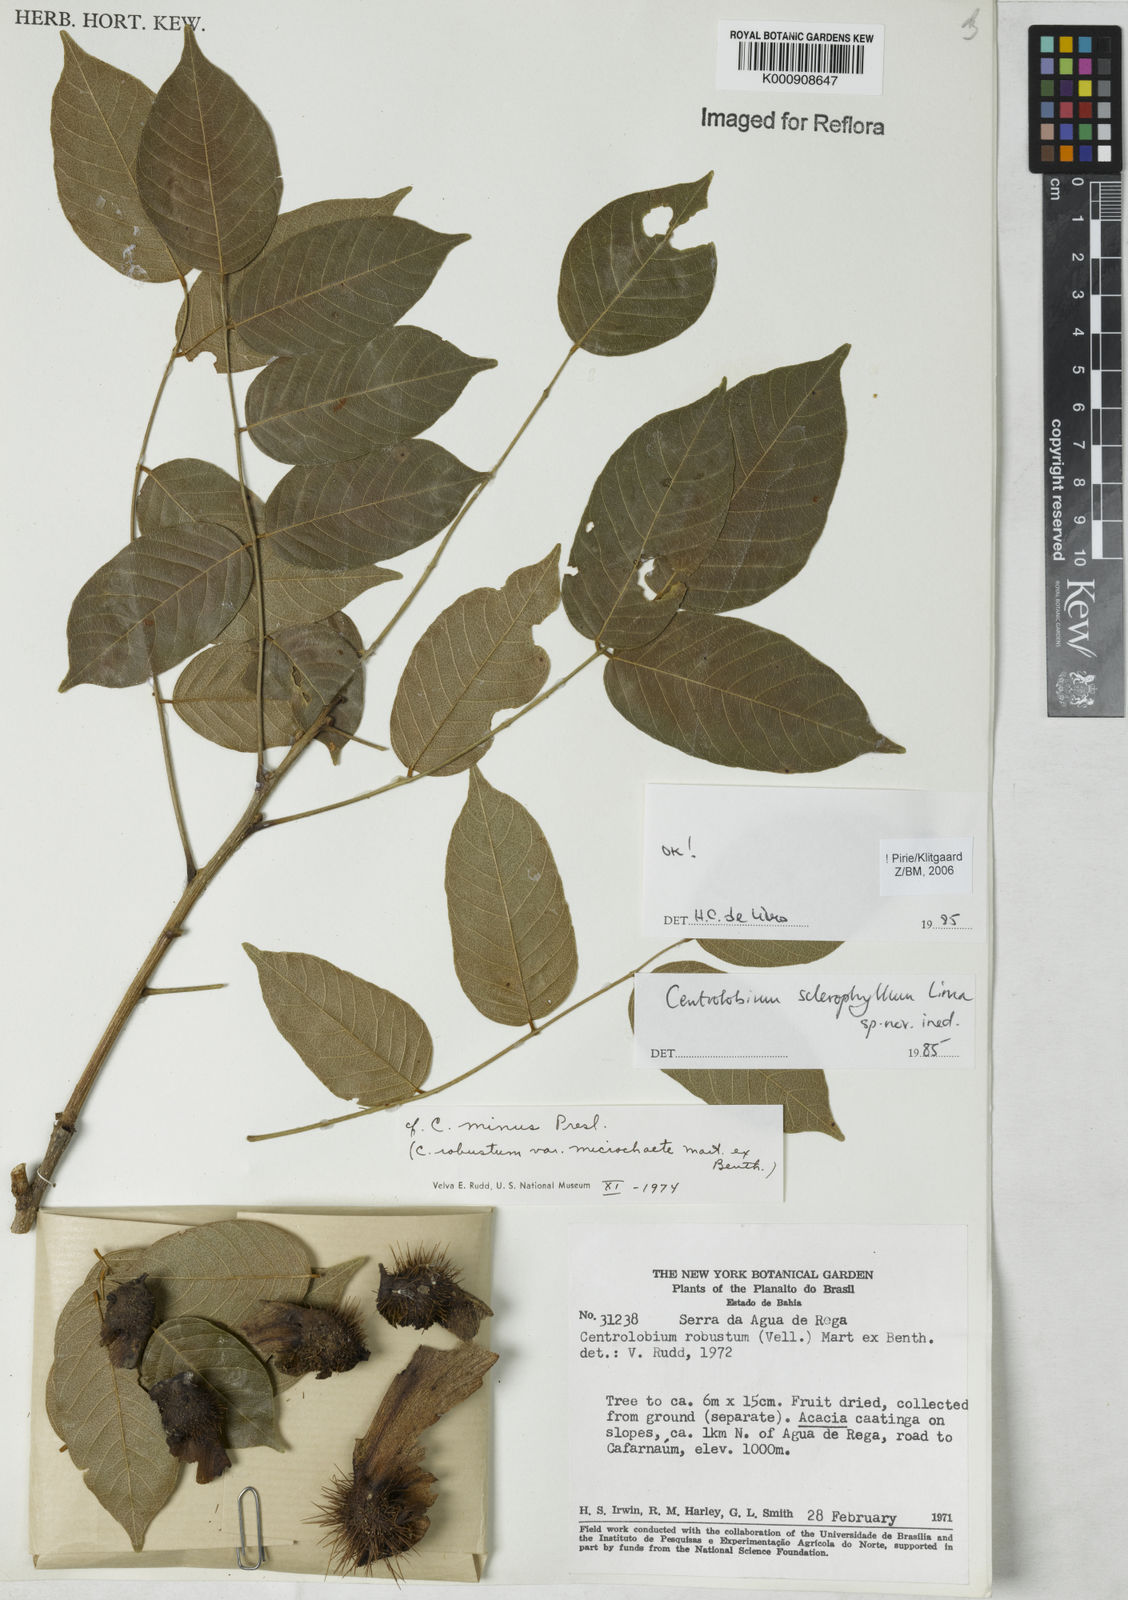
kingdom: Plantae
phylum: Tracheophyta
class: Magnoliopsida
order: Fabales
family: Fabaceae
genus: Centrolobium
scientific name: Centrolobium sclerophyllum
